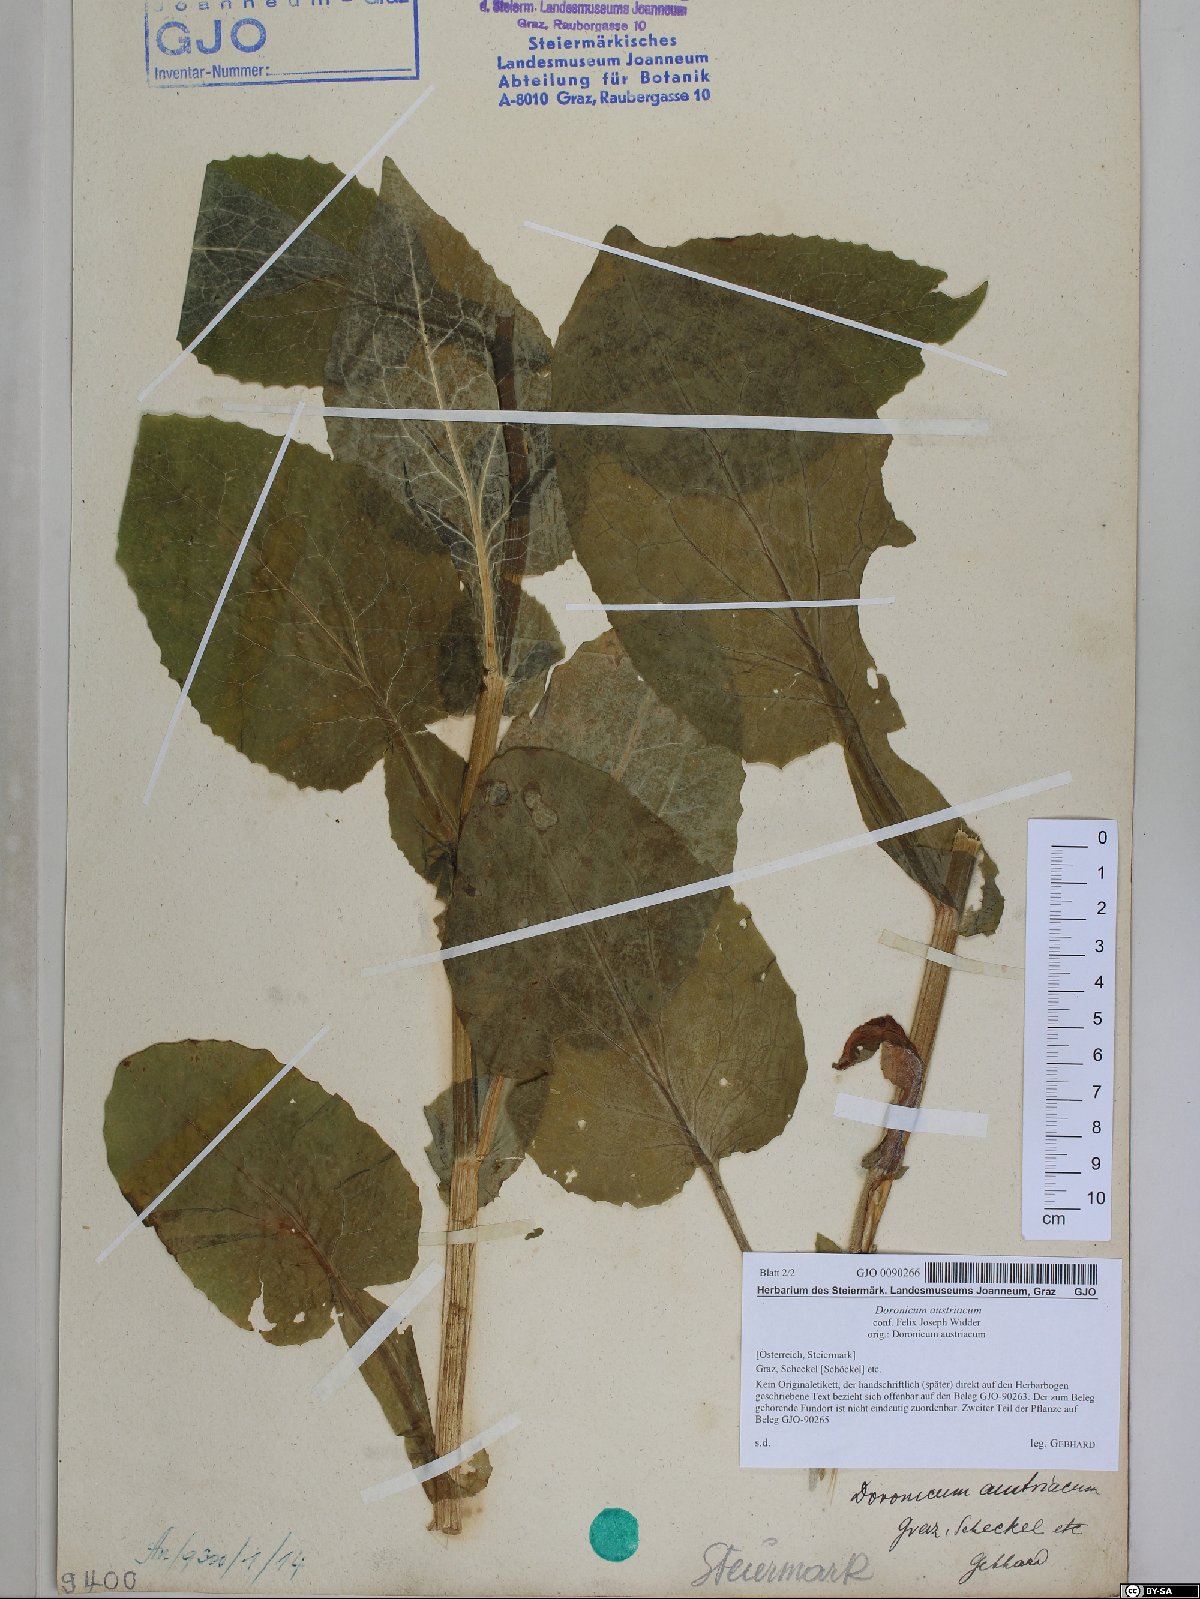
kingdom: Plantae
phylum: Tracheophyta
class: Magnoliopsida
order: Asterales
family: Asteraceae
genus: Doronicum
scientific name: Doronicum austriacum
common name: Austrian leopard's-bane
